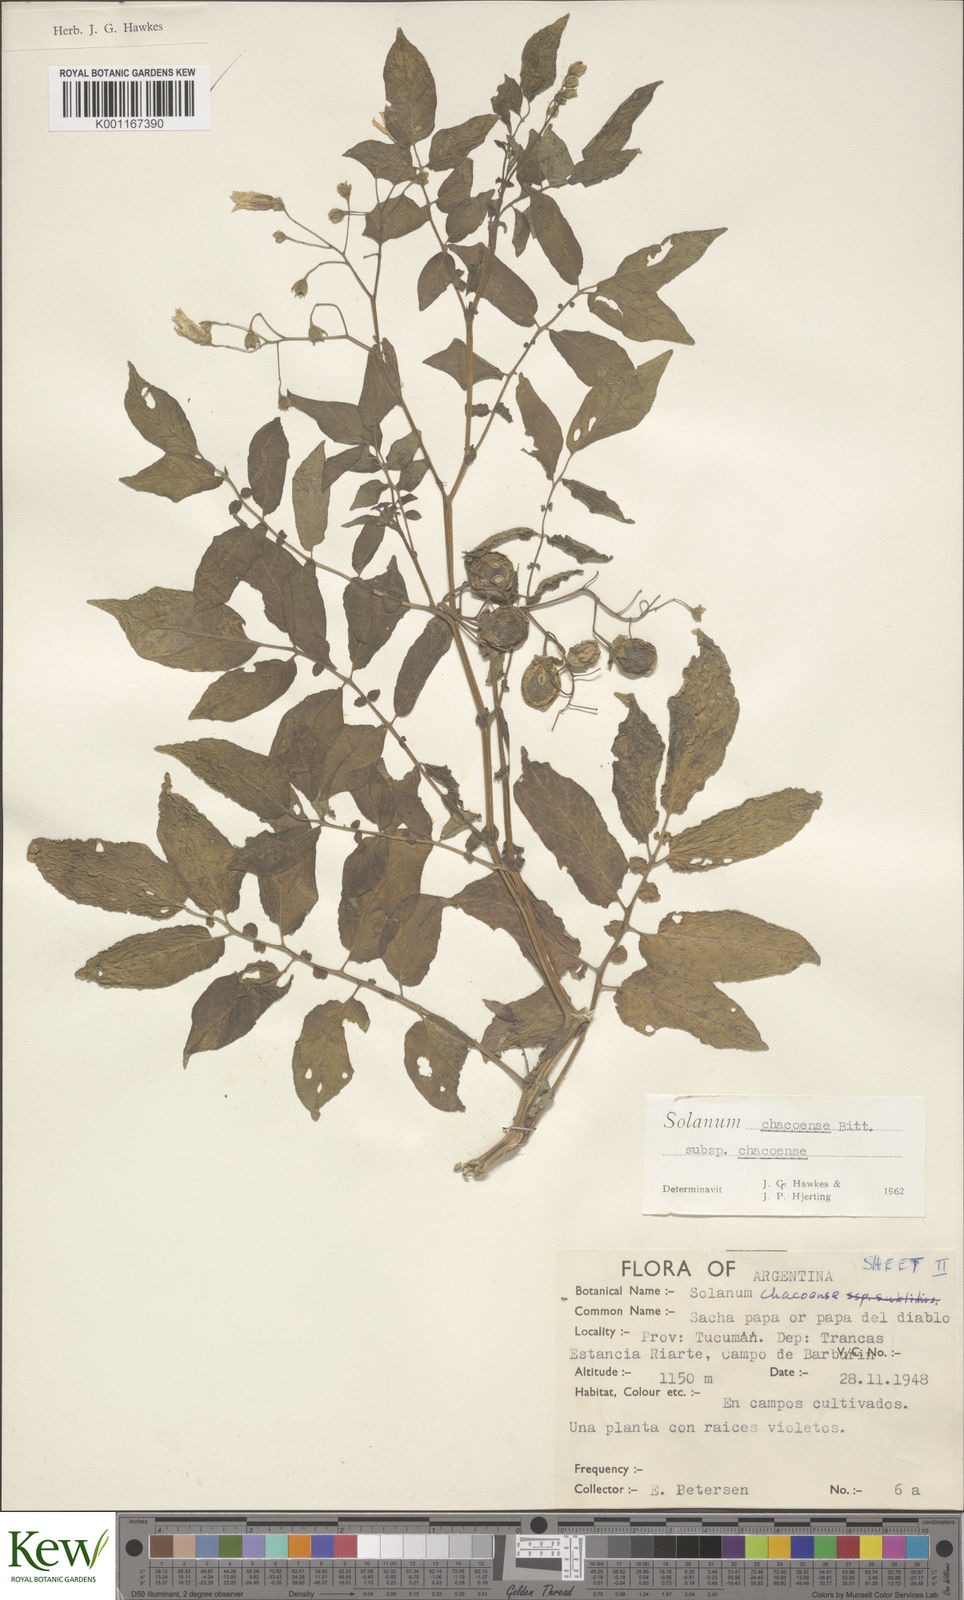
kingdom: Plantae
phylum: Tracheophyta
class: Magnoliopsida
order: Solanales
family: Solanaceae
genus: Solanum
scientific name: Solanum chacoense
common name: Chaco potato
